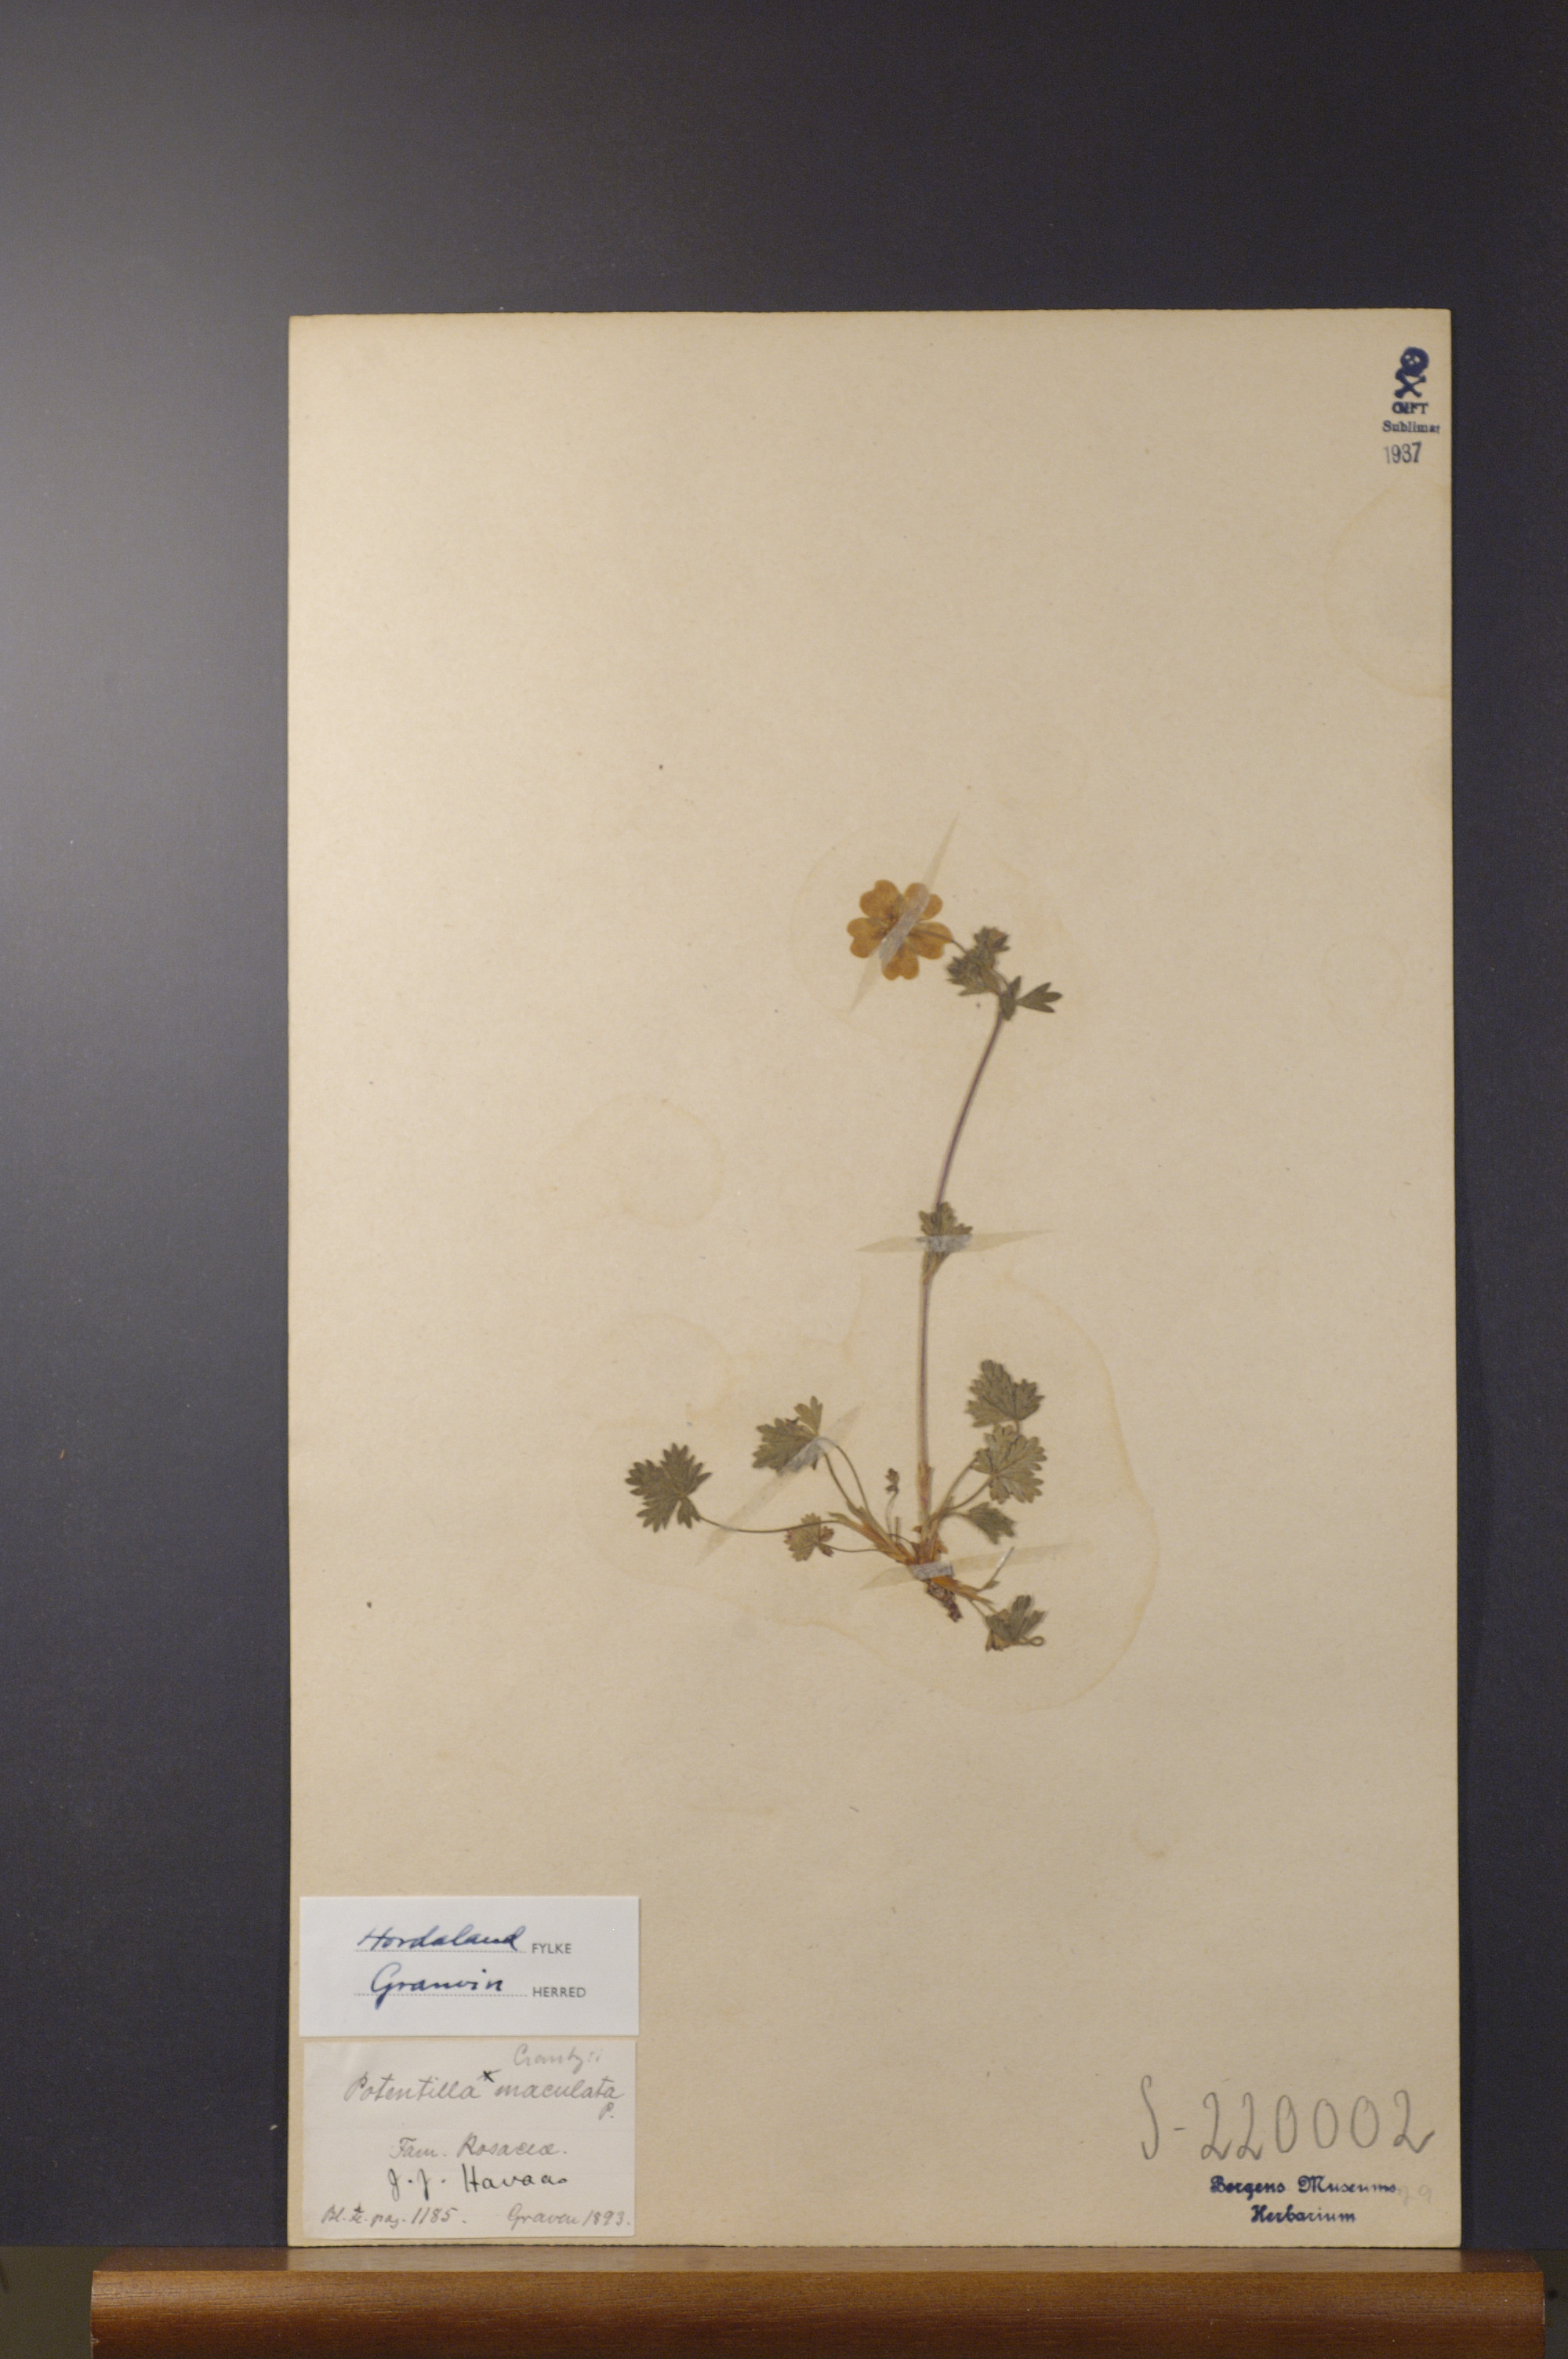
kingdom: Plantae
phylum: Tracheophyta
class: Magnoliopsida
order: Rosales
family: Rosaceae
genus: Potentilla
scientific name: Potentilla crantzii
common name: Alpine cinquefoil
